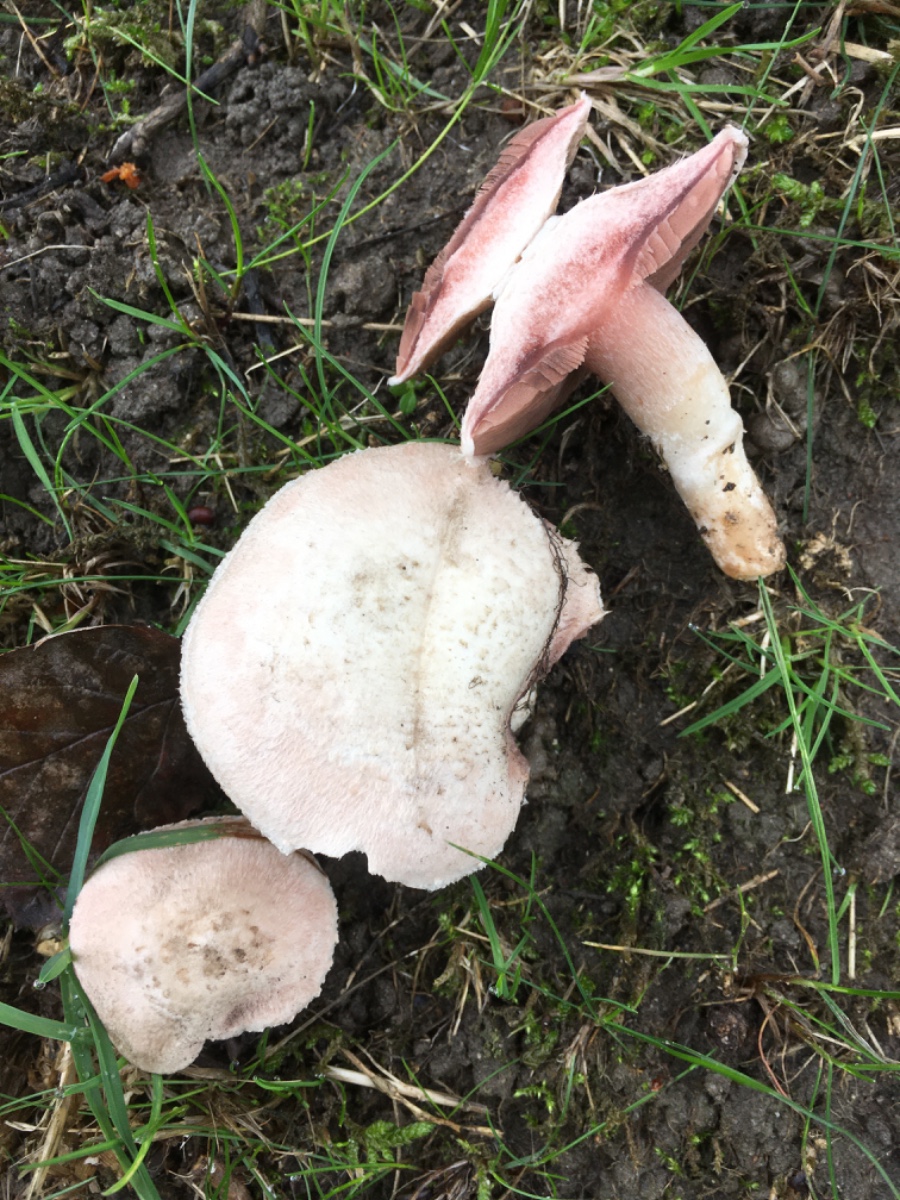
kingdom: Fungi
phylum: Basidiomycota
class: Agaricomycetes
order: Agaricales
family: Agaricaceae
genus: Agaricus
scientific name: Agaricus
